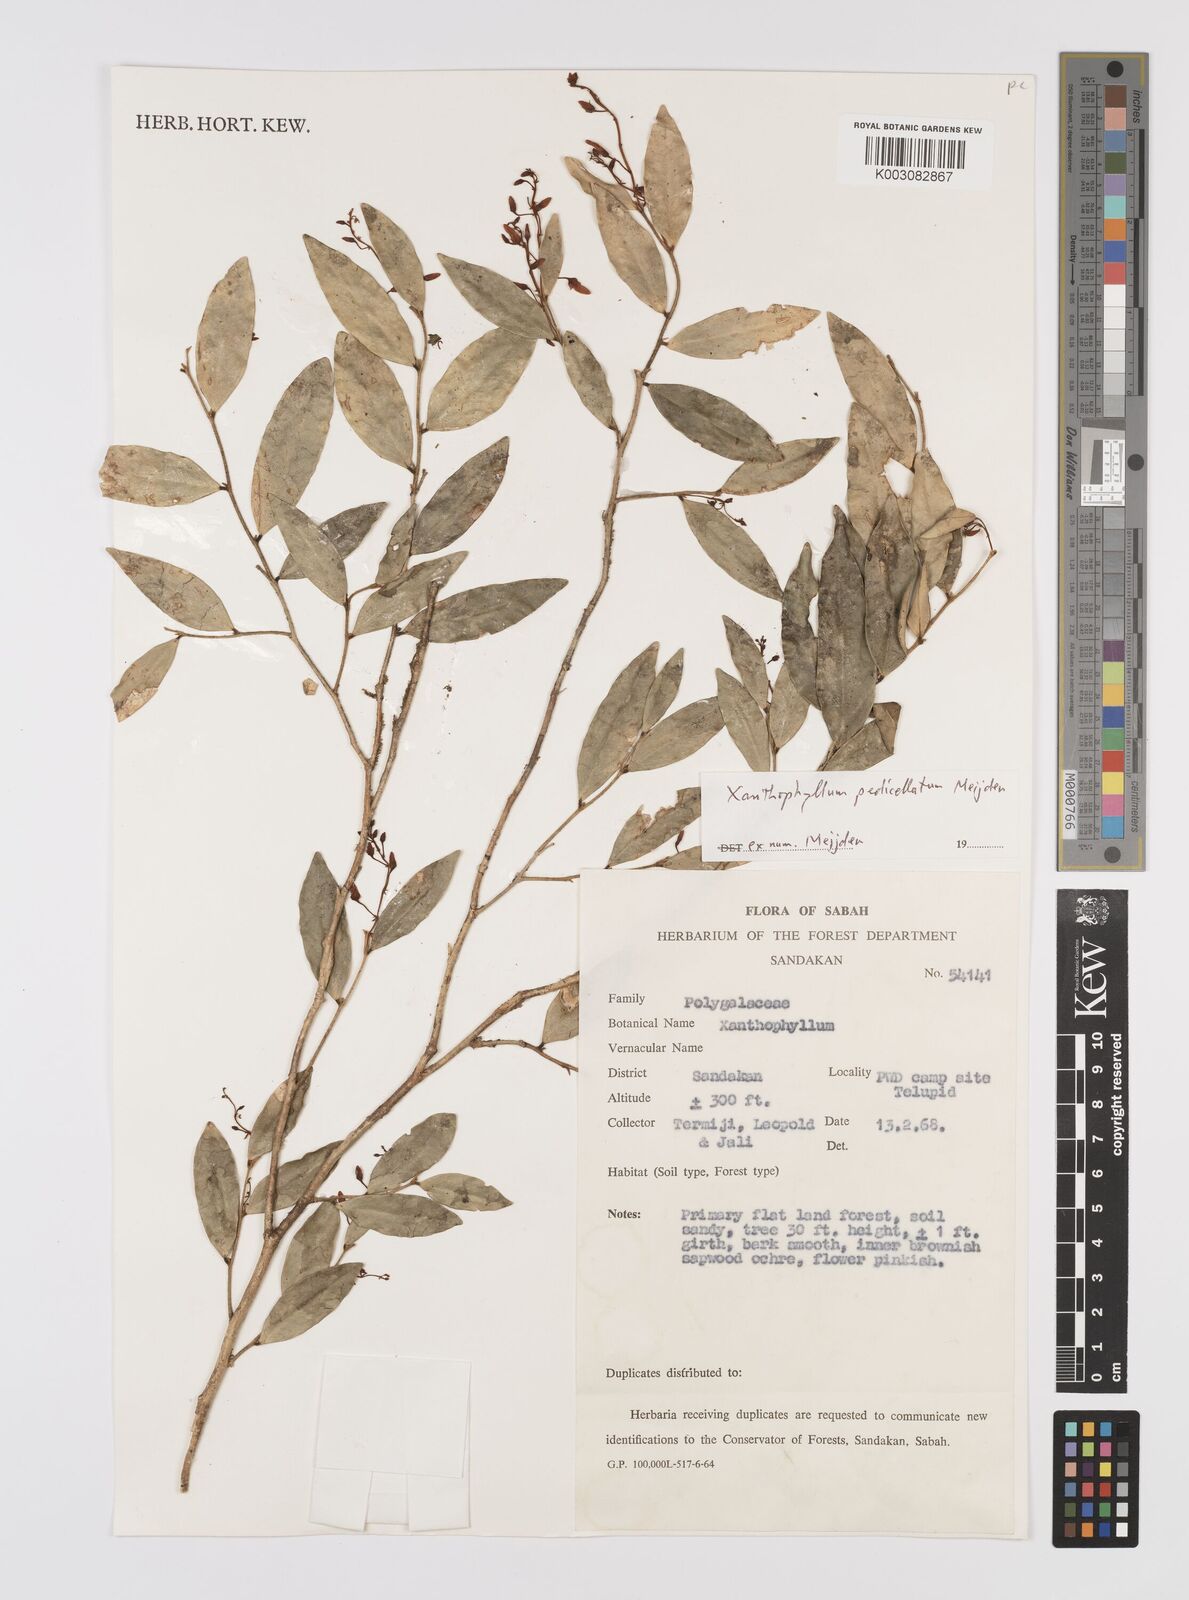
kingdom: Plantae
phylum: Tracheophyta
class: Magnoliopsida
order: Fabales
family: Polygalaceae
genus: Xanthophyllum
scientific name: Xanthophyllum pedicellatum
